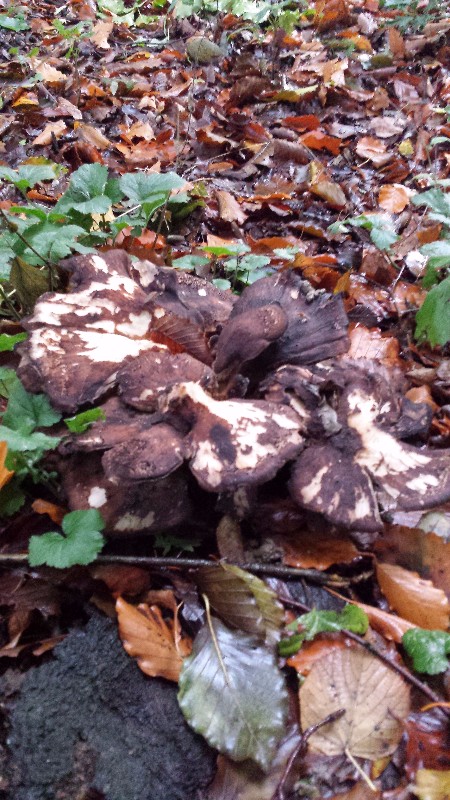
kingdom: Fungi
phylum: Basidiomycota
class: Agaricomycetes
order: Polyporales
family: Meripilaceae
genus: Meripilus
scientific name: Meripilus giganteus
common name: kæmpeporesvamp
